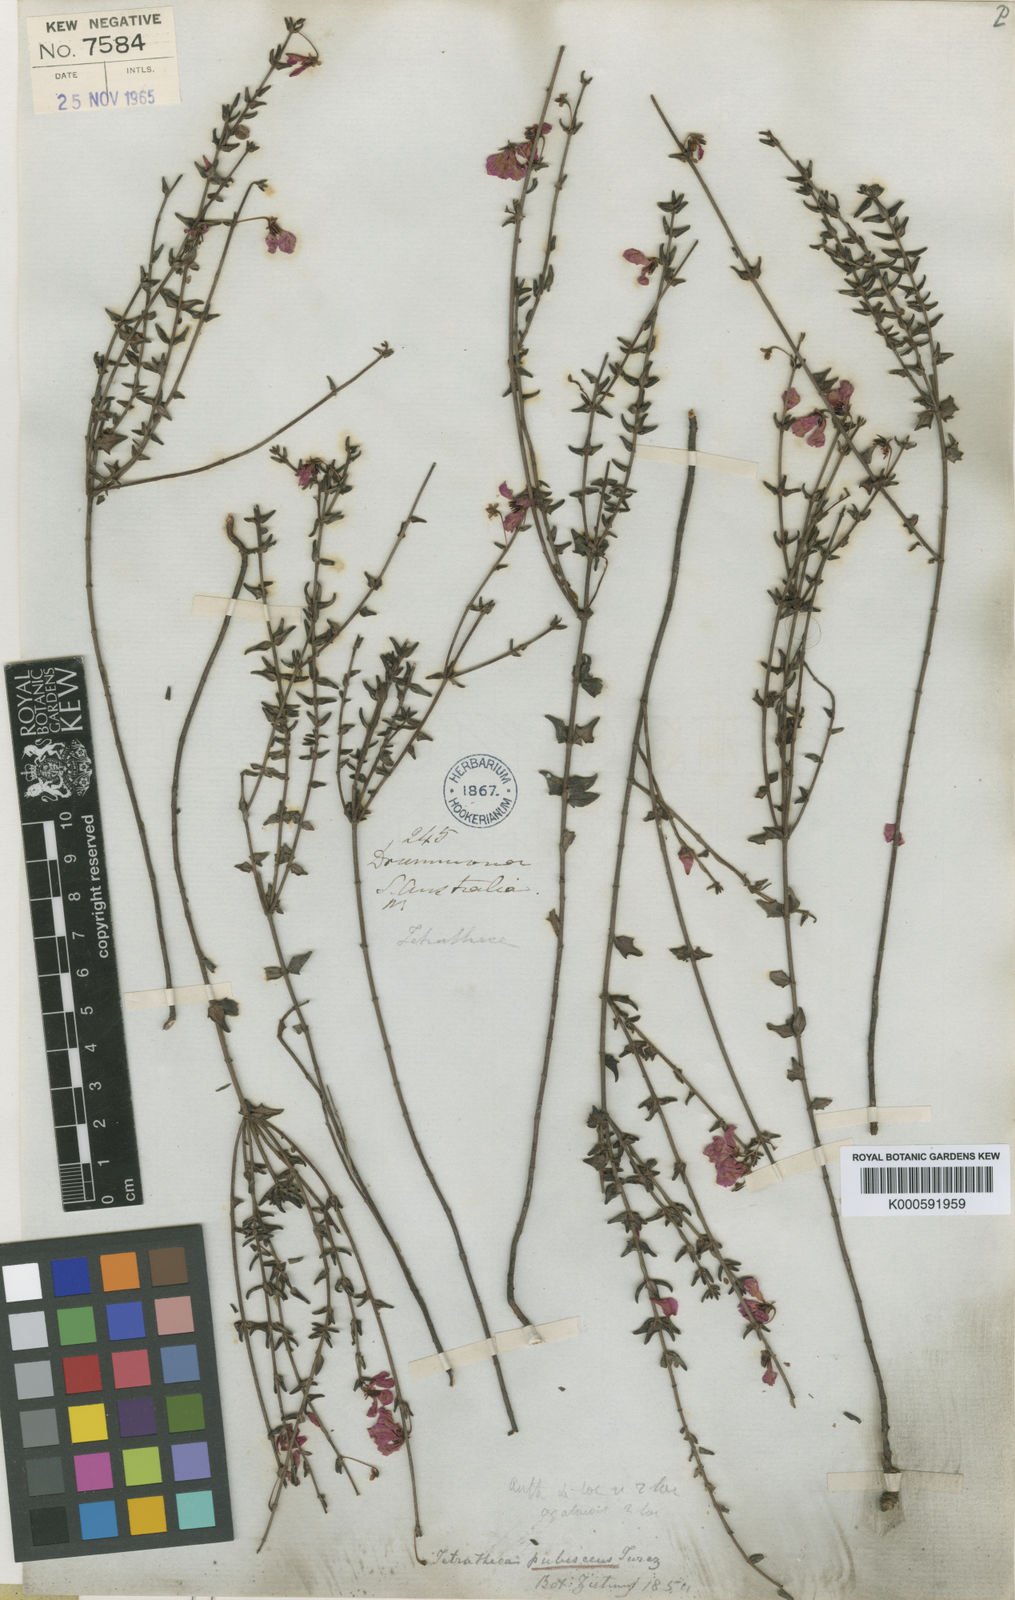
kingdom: Plantae
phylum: Tracheophyta
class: Magnoliopsida
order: Oxalidales
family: Elaeocarpaceae
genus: Tetratheca
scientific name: Tetratheca pubescens
